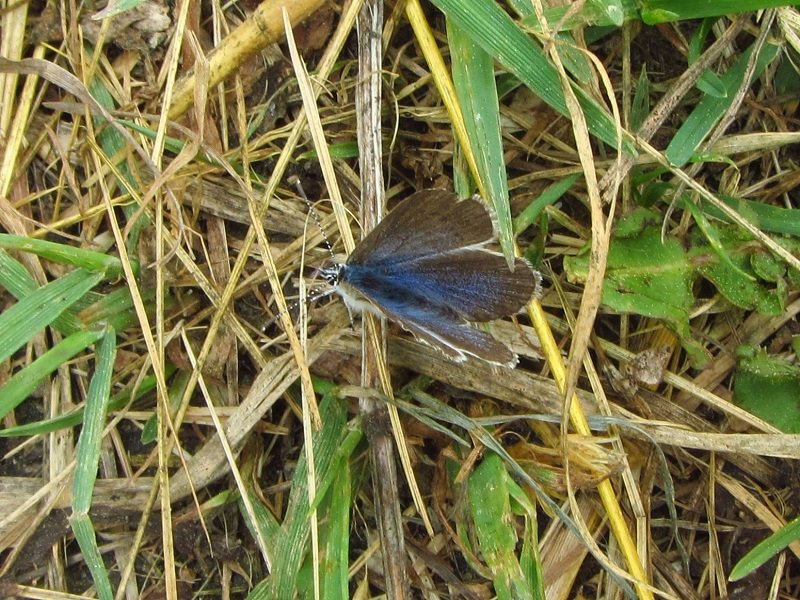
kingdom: Animalia
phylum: Arthropoda
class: Insecta
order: Lepidoptera
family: Lycaenidae
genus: Glaucopsyche
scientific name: Glaucopsyche lygdamus
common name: Silvery Blue
